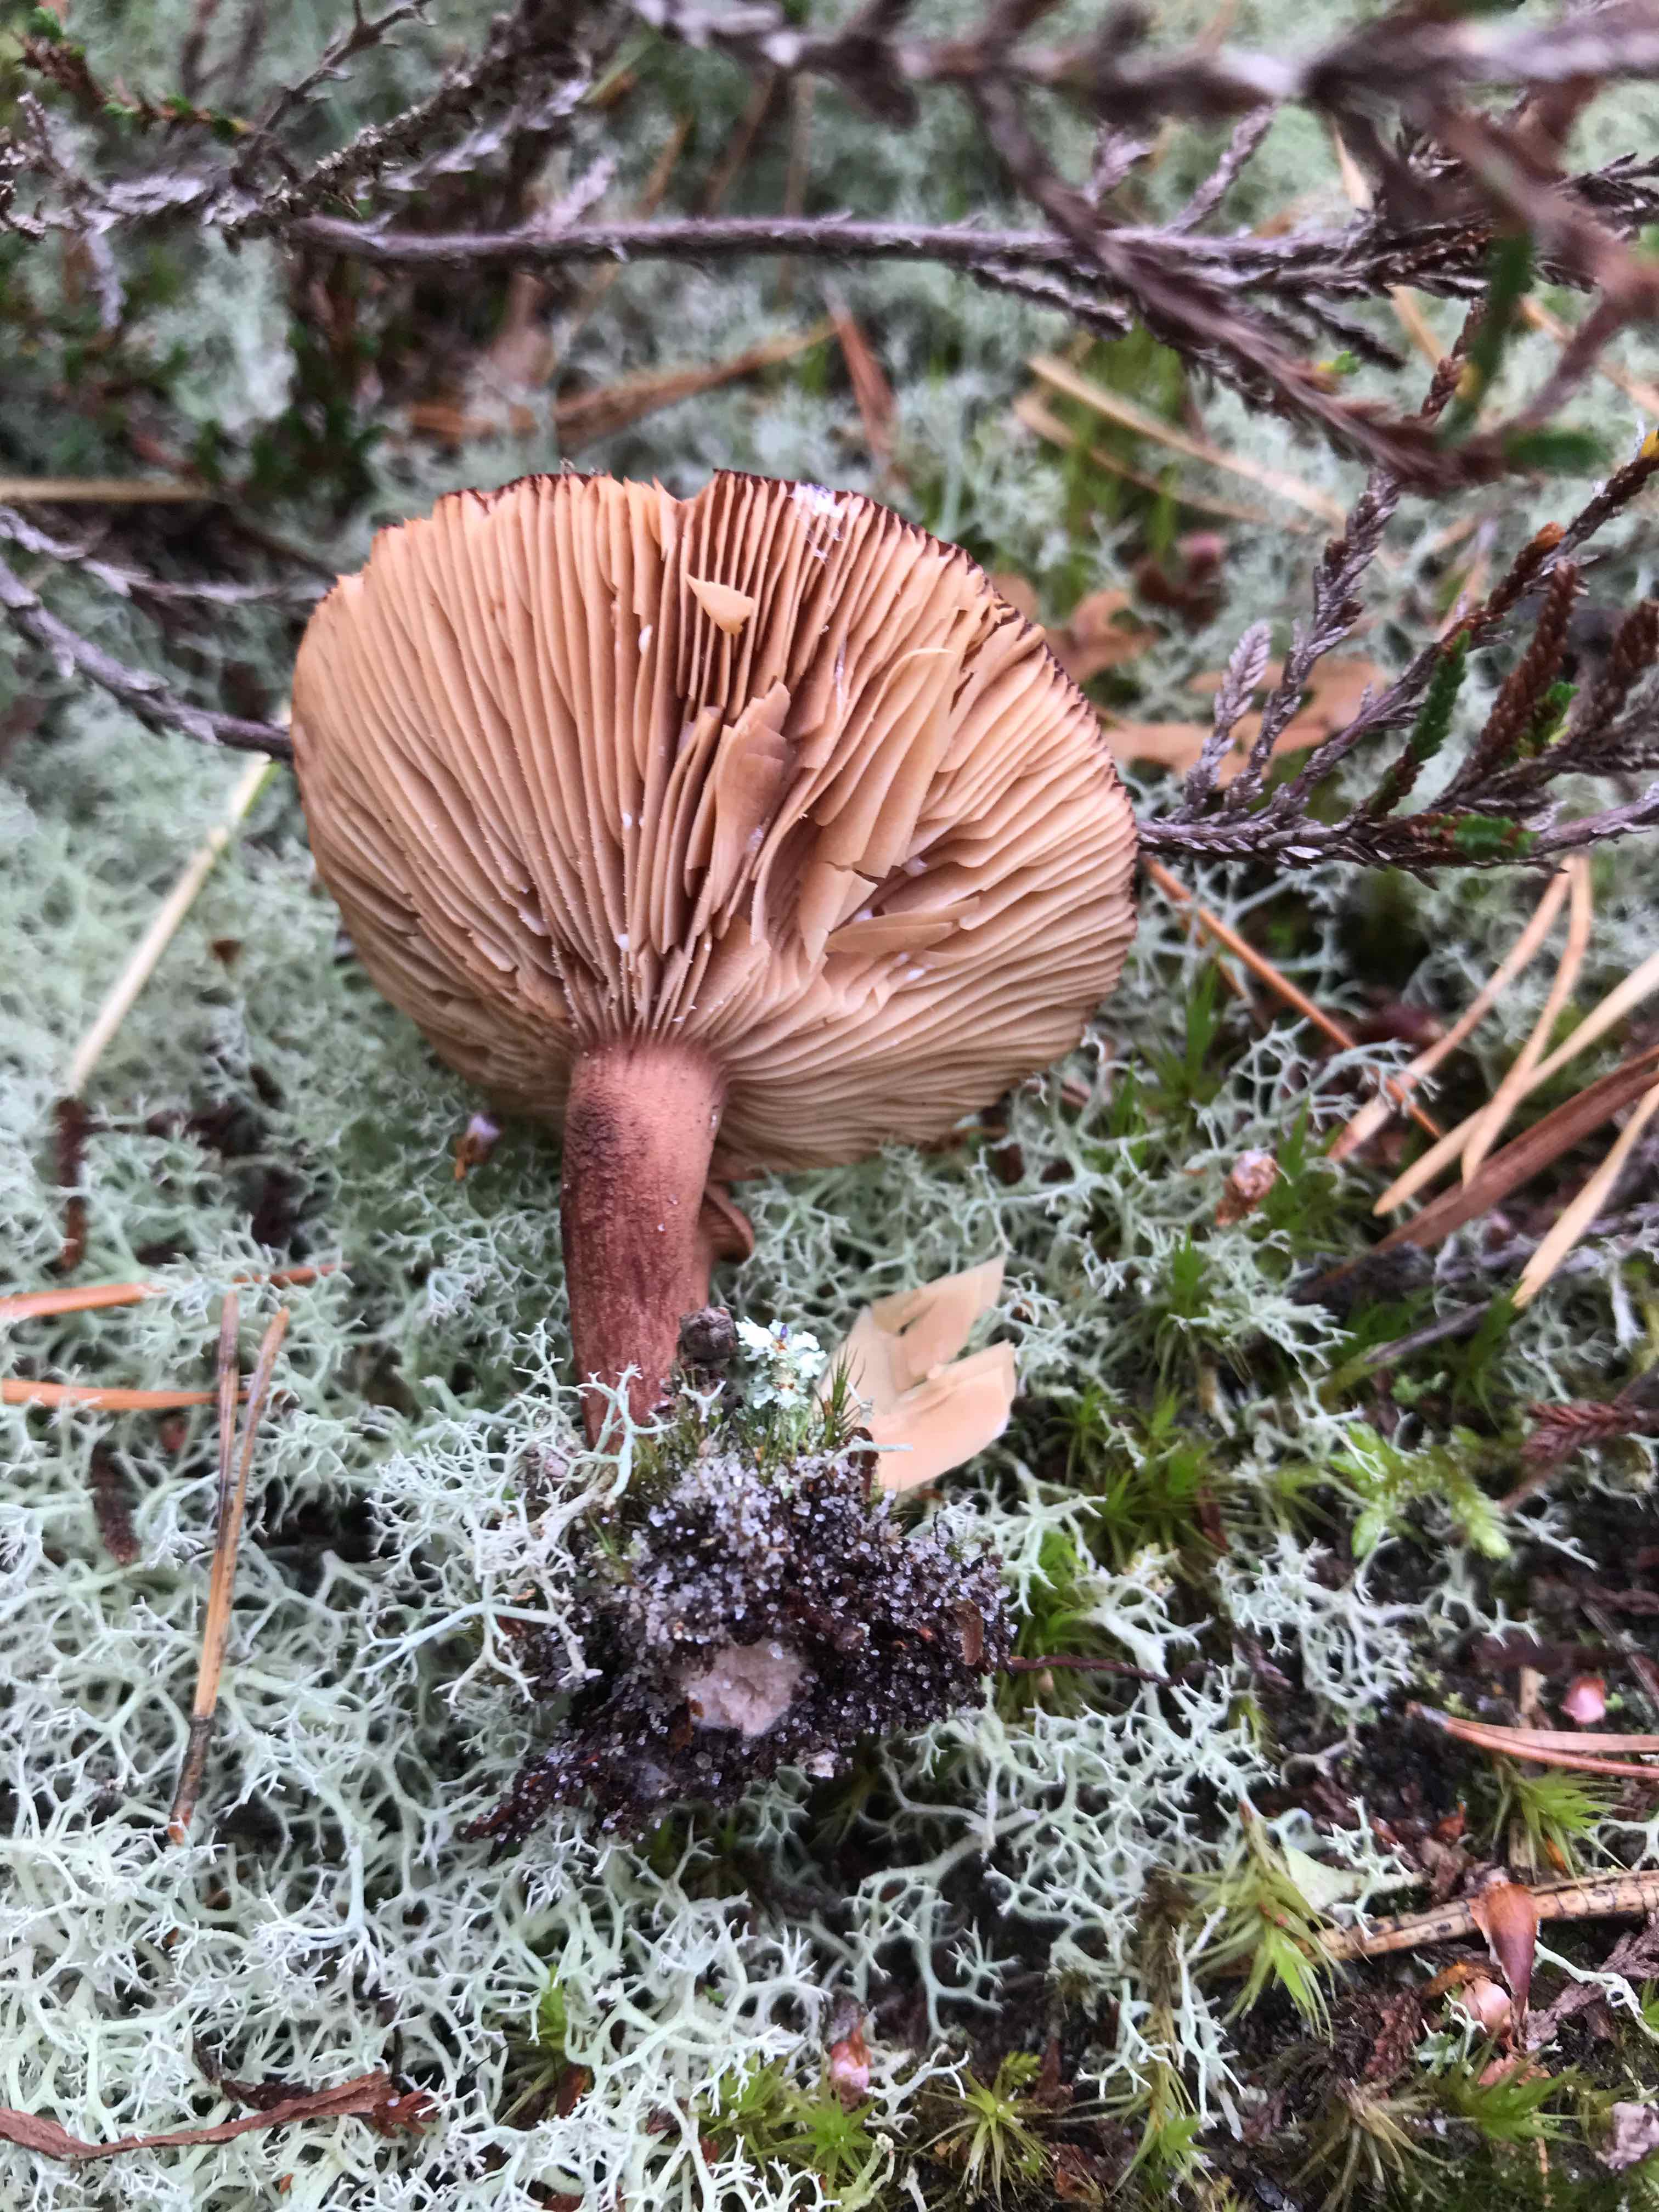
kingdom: Fungi
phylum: Basidiomycota
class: Agaricomycetes
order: Russulales
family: Russulaceae
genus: Lactarius
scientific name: Lactarius rufus
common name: rødbrun mælkehat
